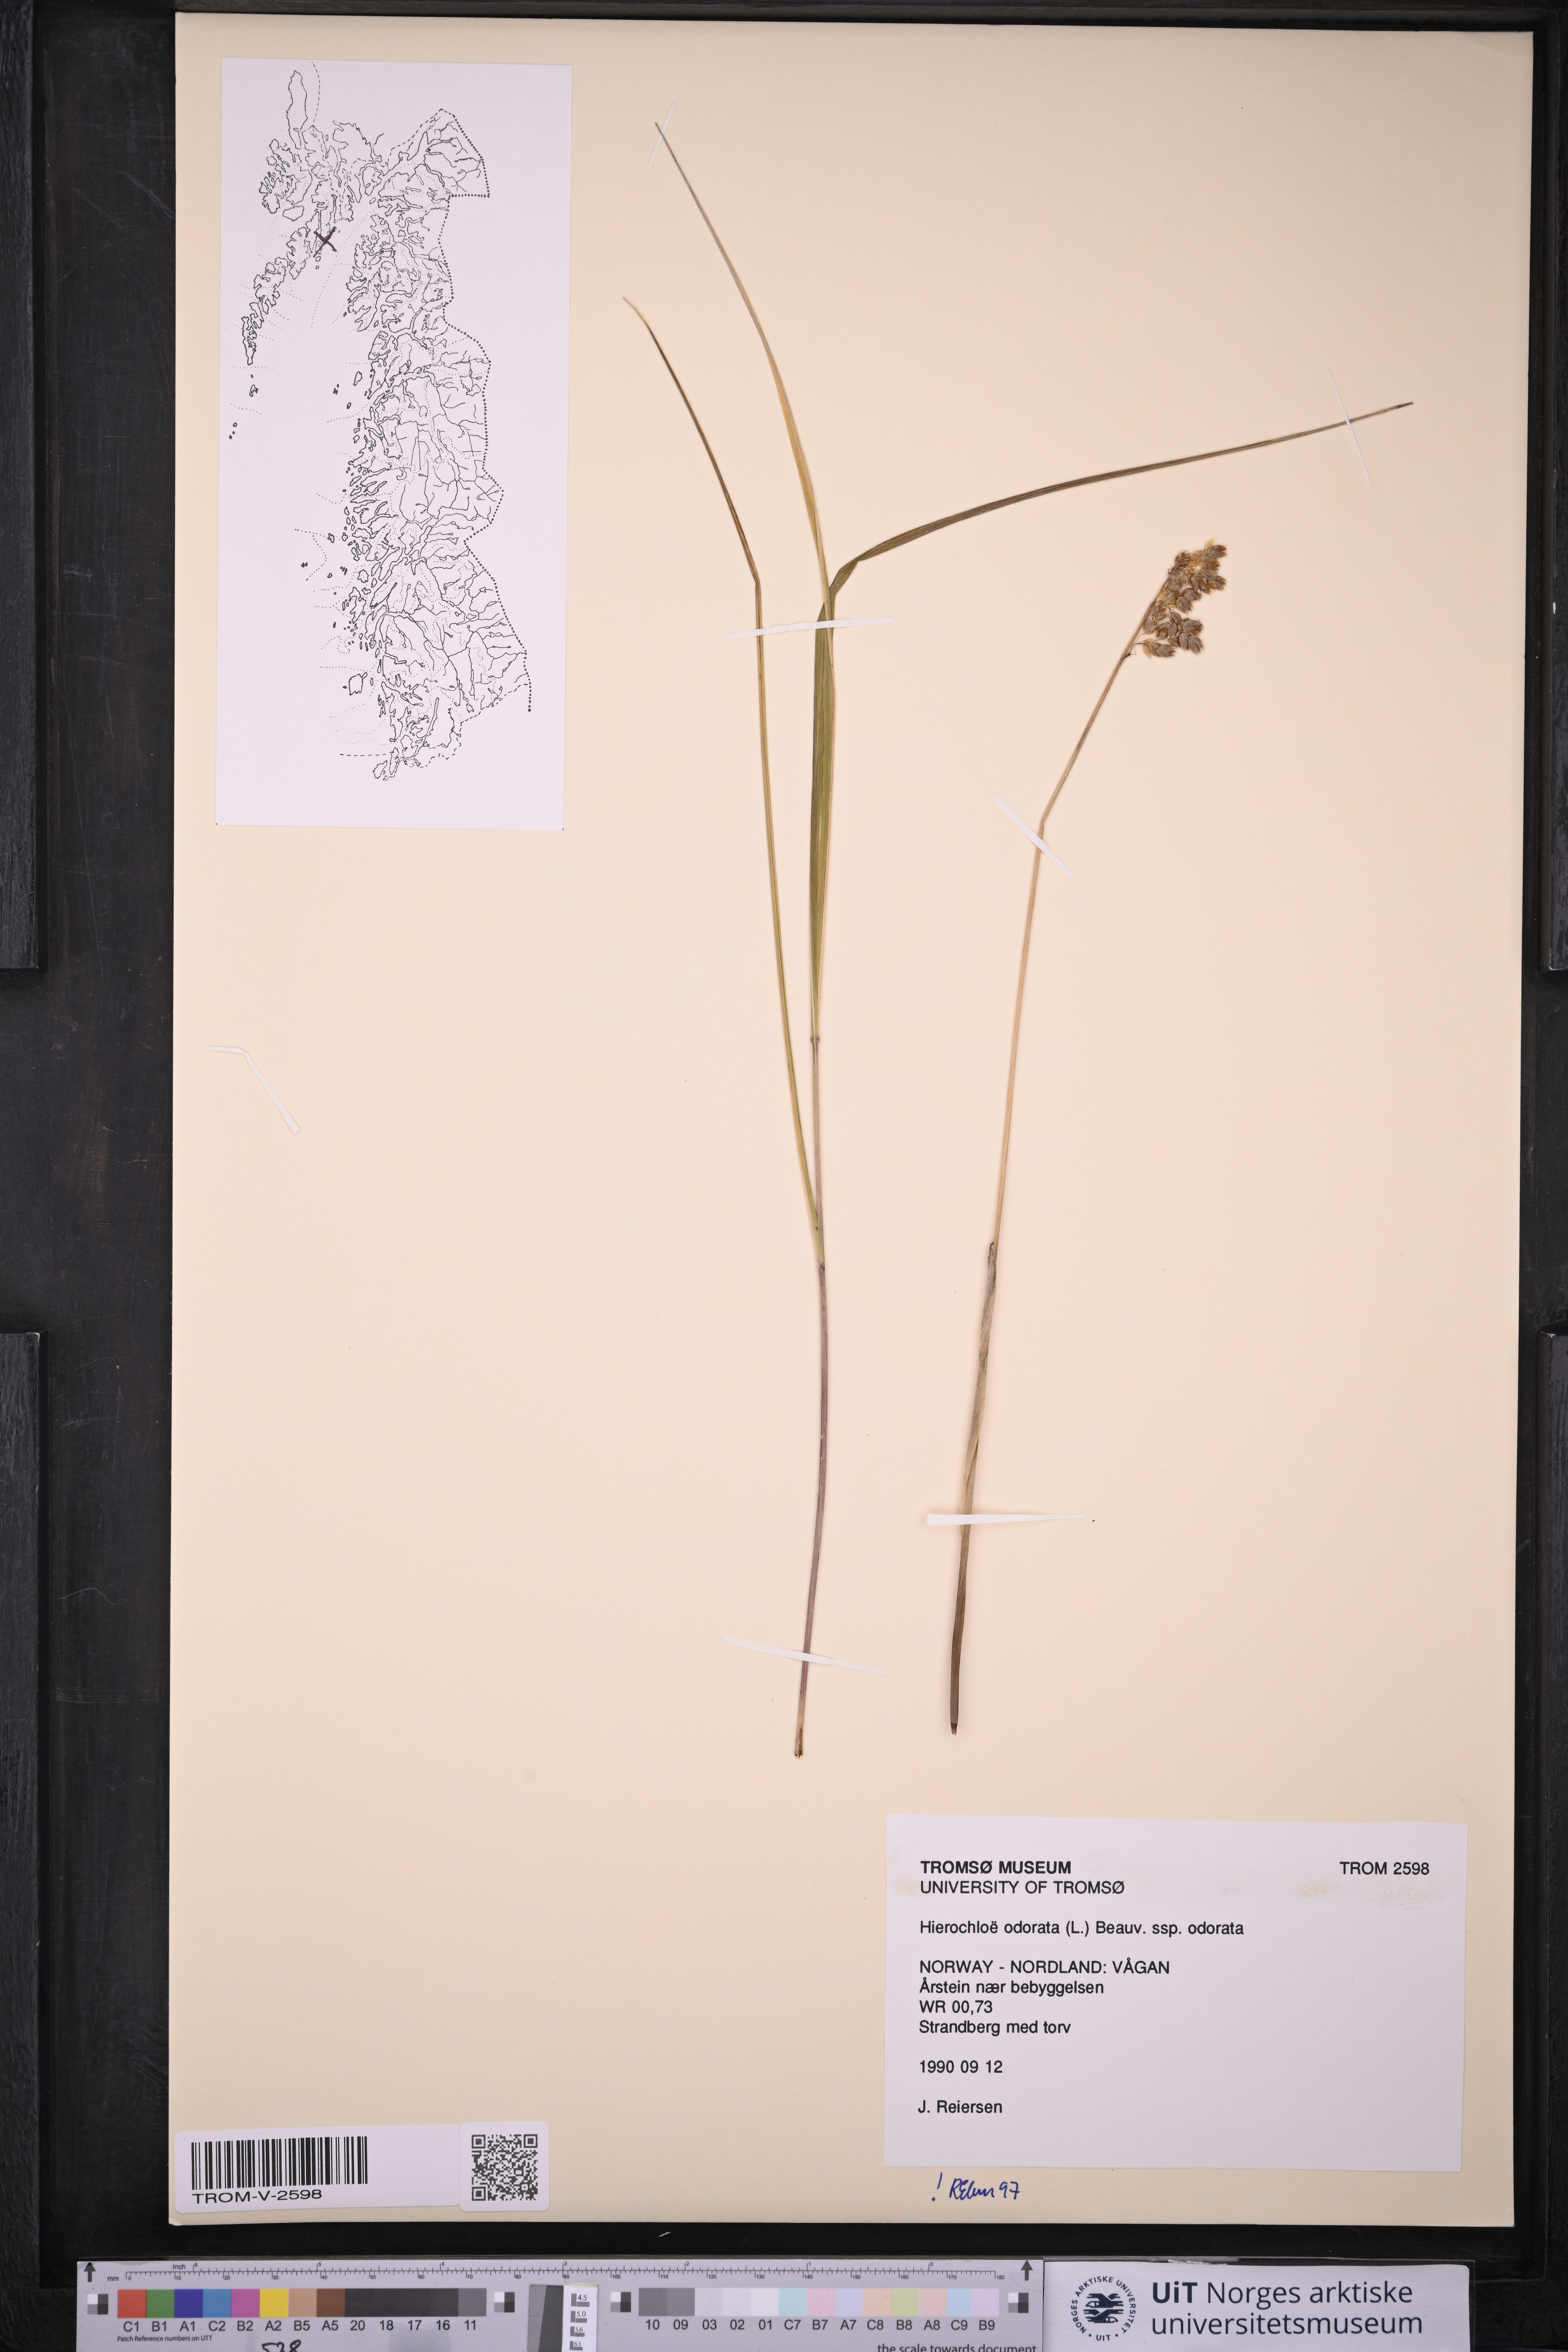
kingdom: Plantae
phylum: Tracheophyta
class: Liliopsida
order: Poales
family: Poaceae
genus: Anthoxanthum
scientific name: Anthoxanthum nitens
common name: Holy grass
